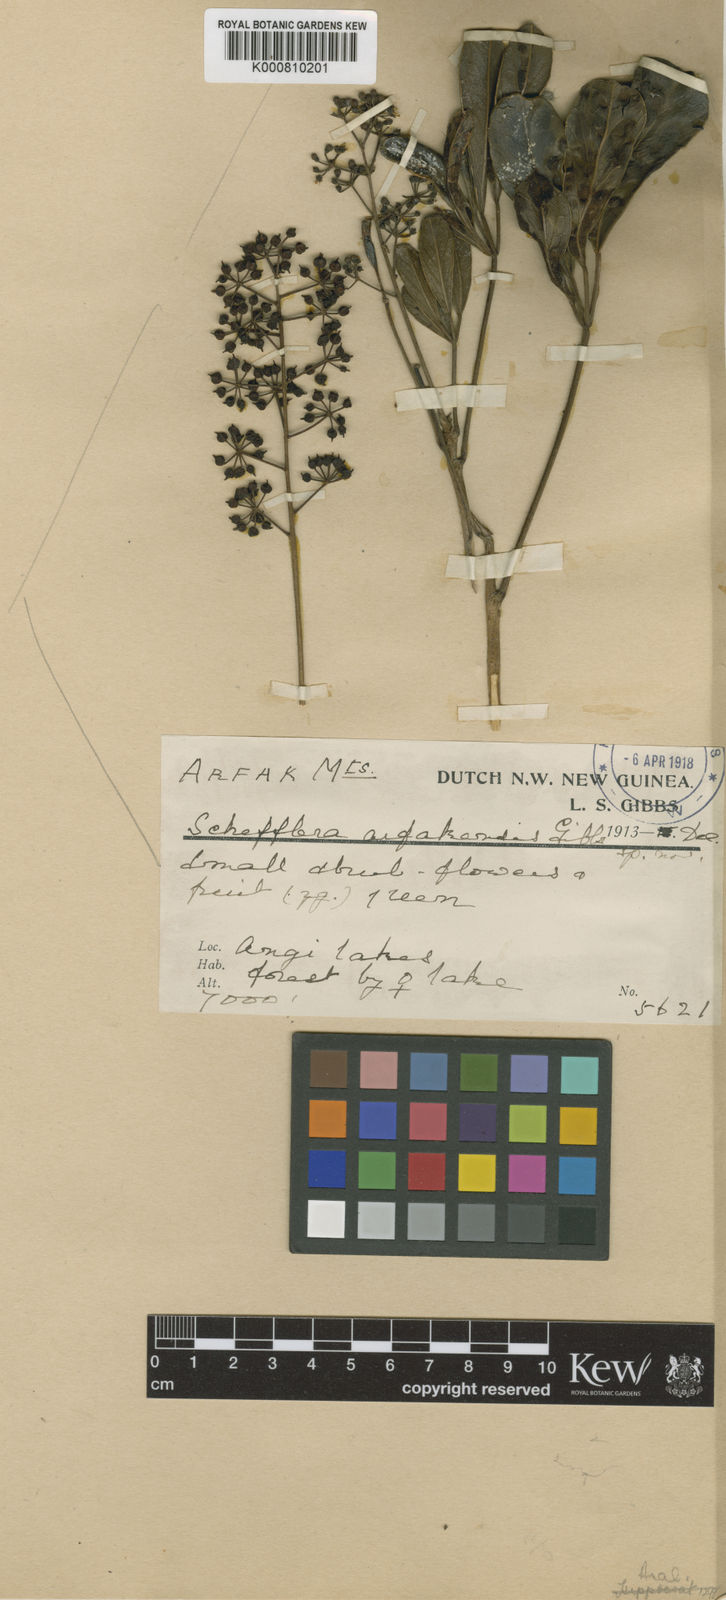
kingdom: Plantae
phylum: Tracheophyta
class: Magnoliopsida
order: Apiales
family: Araliaceae
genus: Heptapleurum
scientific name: Heptapleurum arfakense
